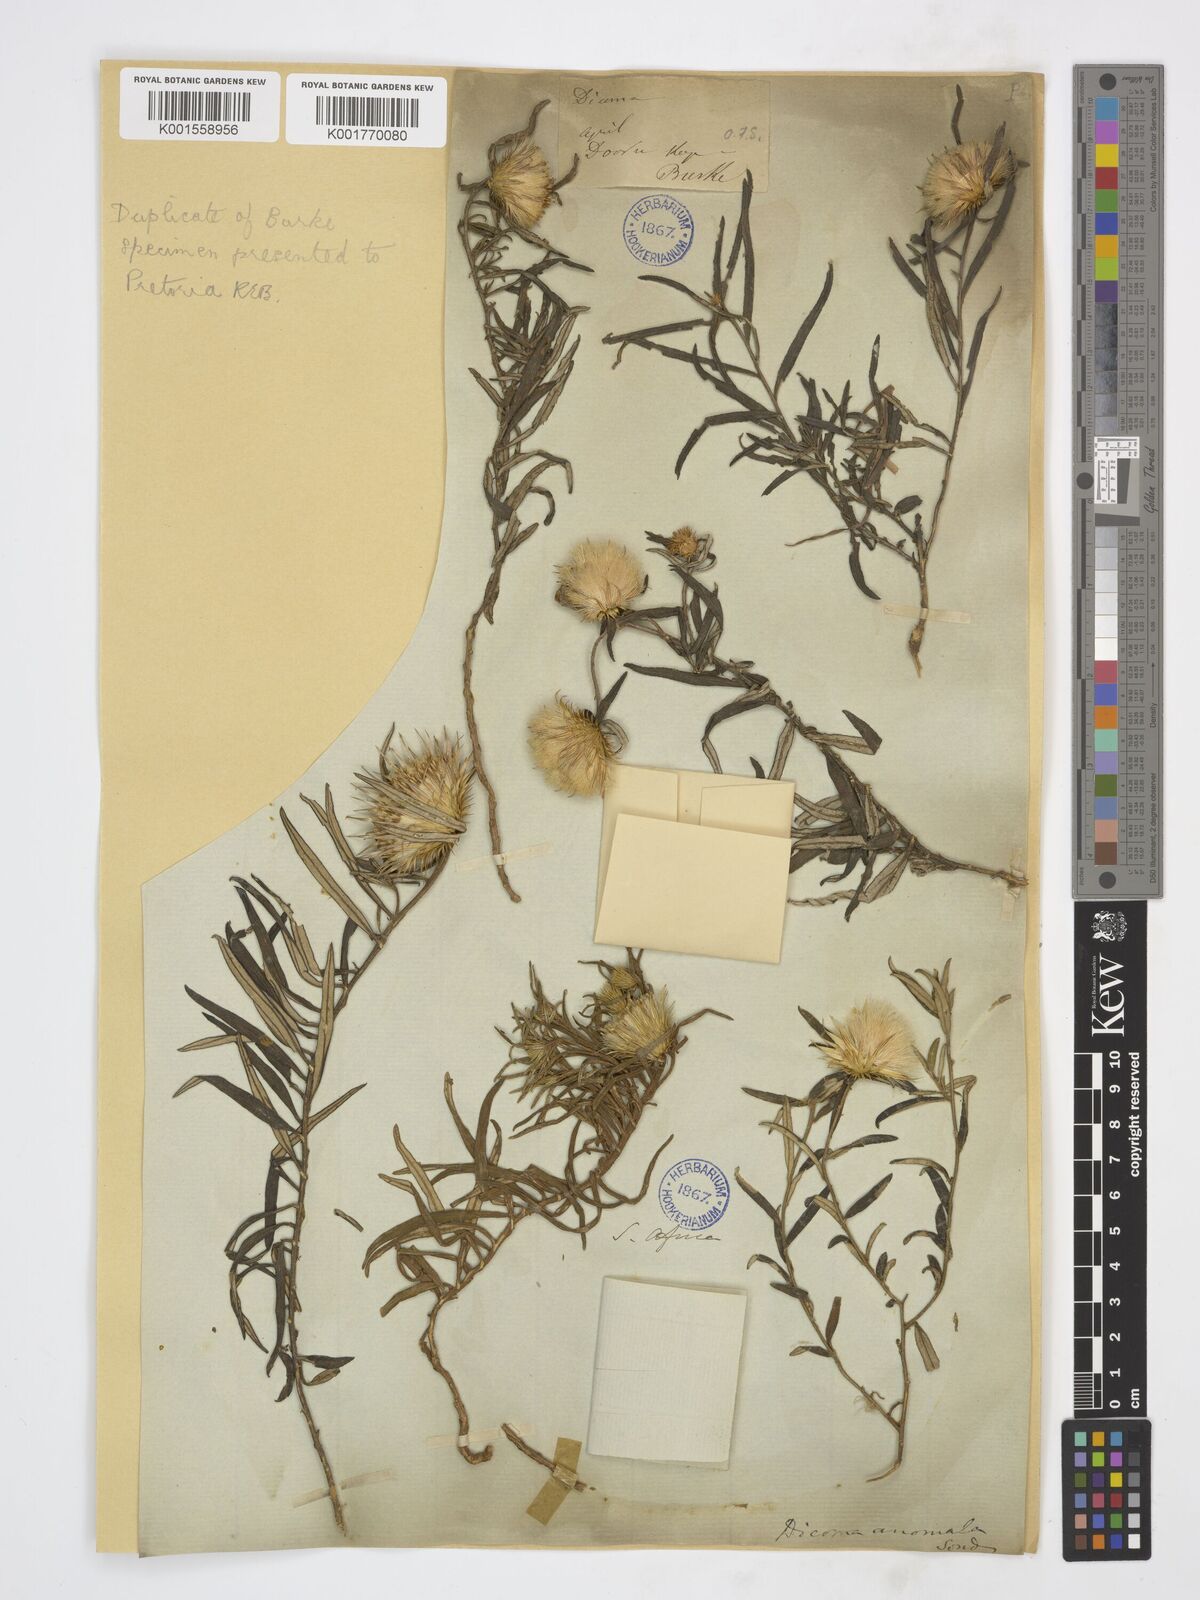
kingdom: Plantae
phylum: Tracheophyta
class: Magnoliopsida
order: Asterales
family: Asteraceae
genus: Dicoma
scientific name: Dicoma anomala
